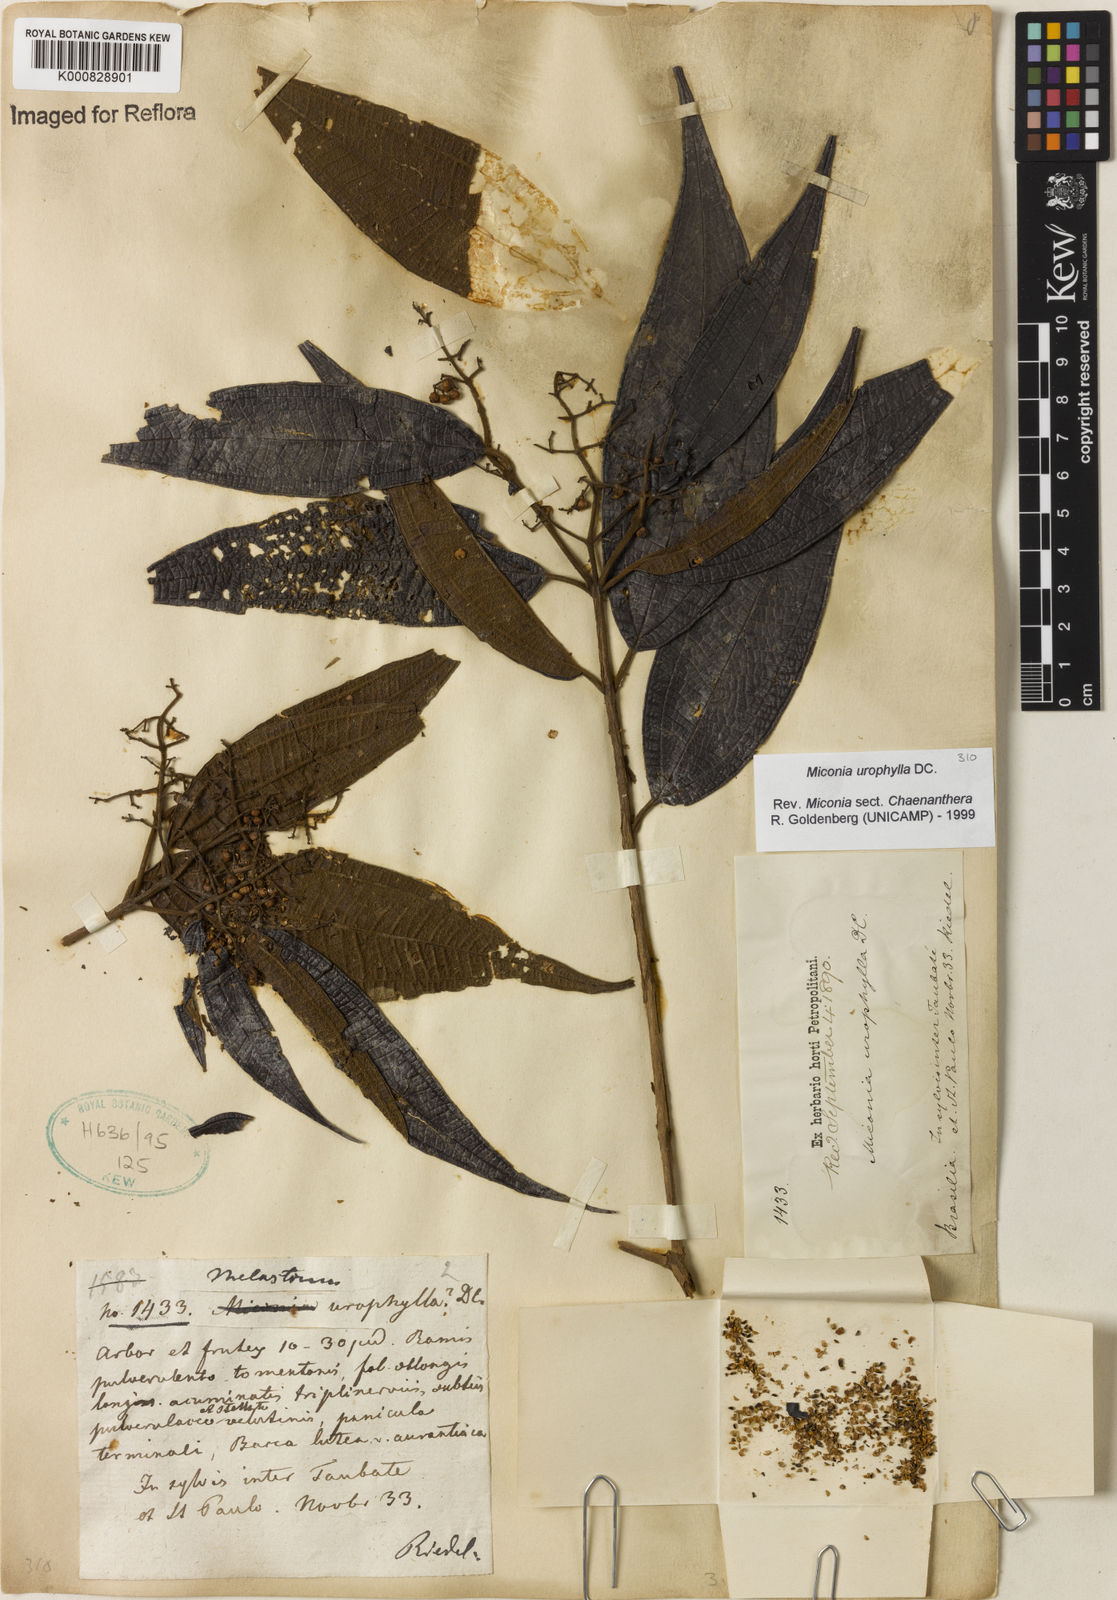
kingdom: Plantae
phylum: Tracheophyta
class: Magnoliopsida
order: Myrtales
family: Melastomataceae
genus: Miconia
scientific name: Miconia urophylla
